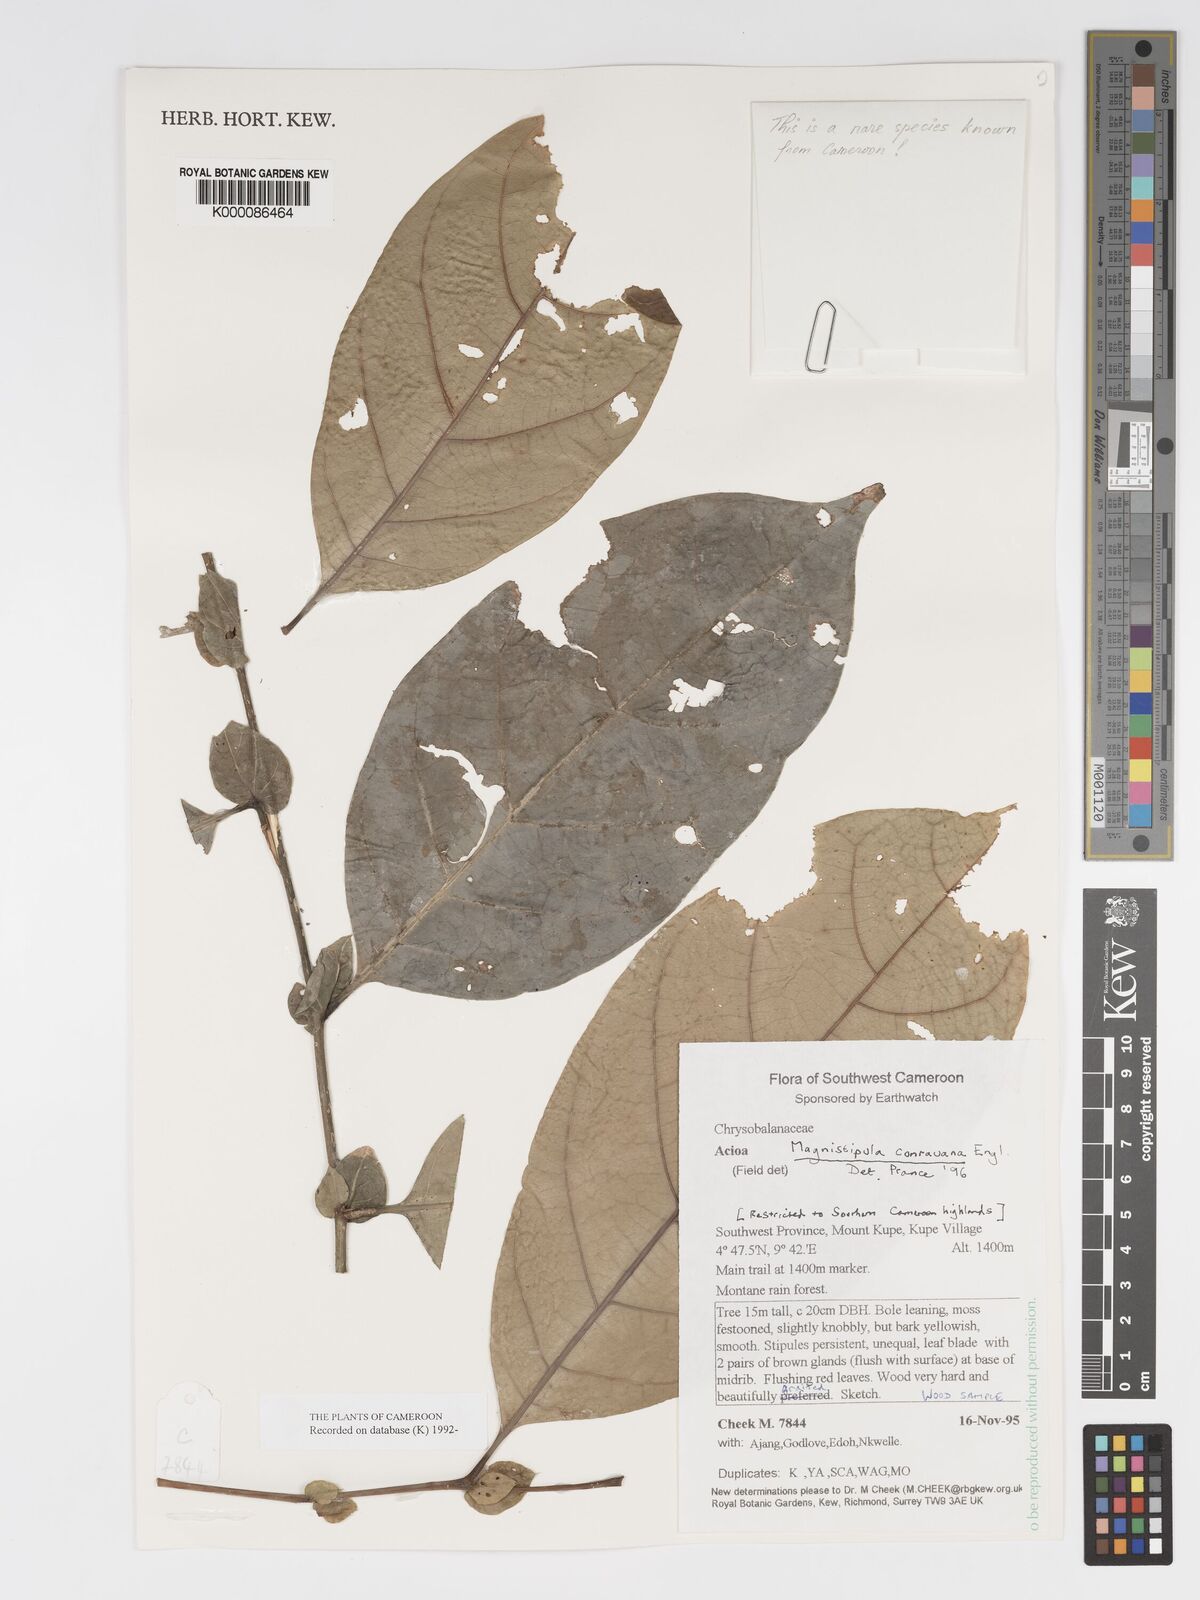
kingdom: Plantae
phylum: Tracheophyta
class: Magnoliopsida
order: Malpighiales
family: Chrysobalanaceae
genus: Magnistipula
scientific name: Magnistipula conrauana
